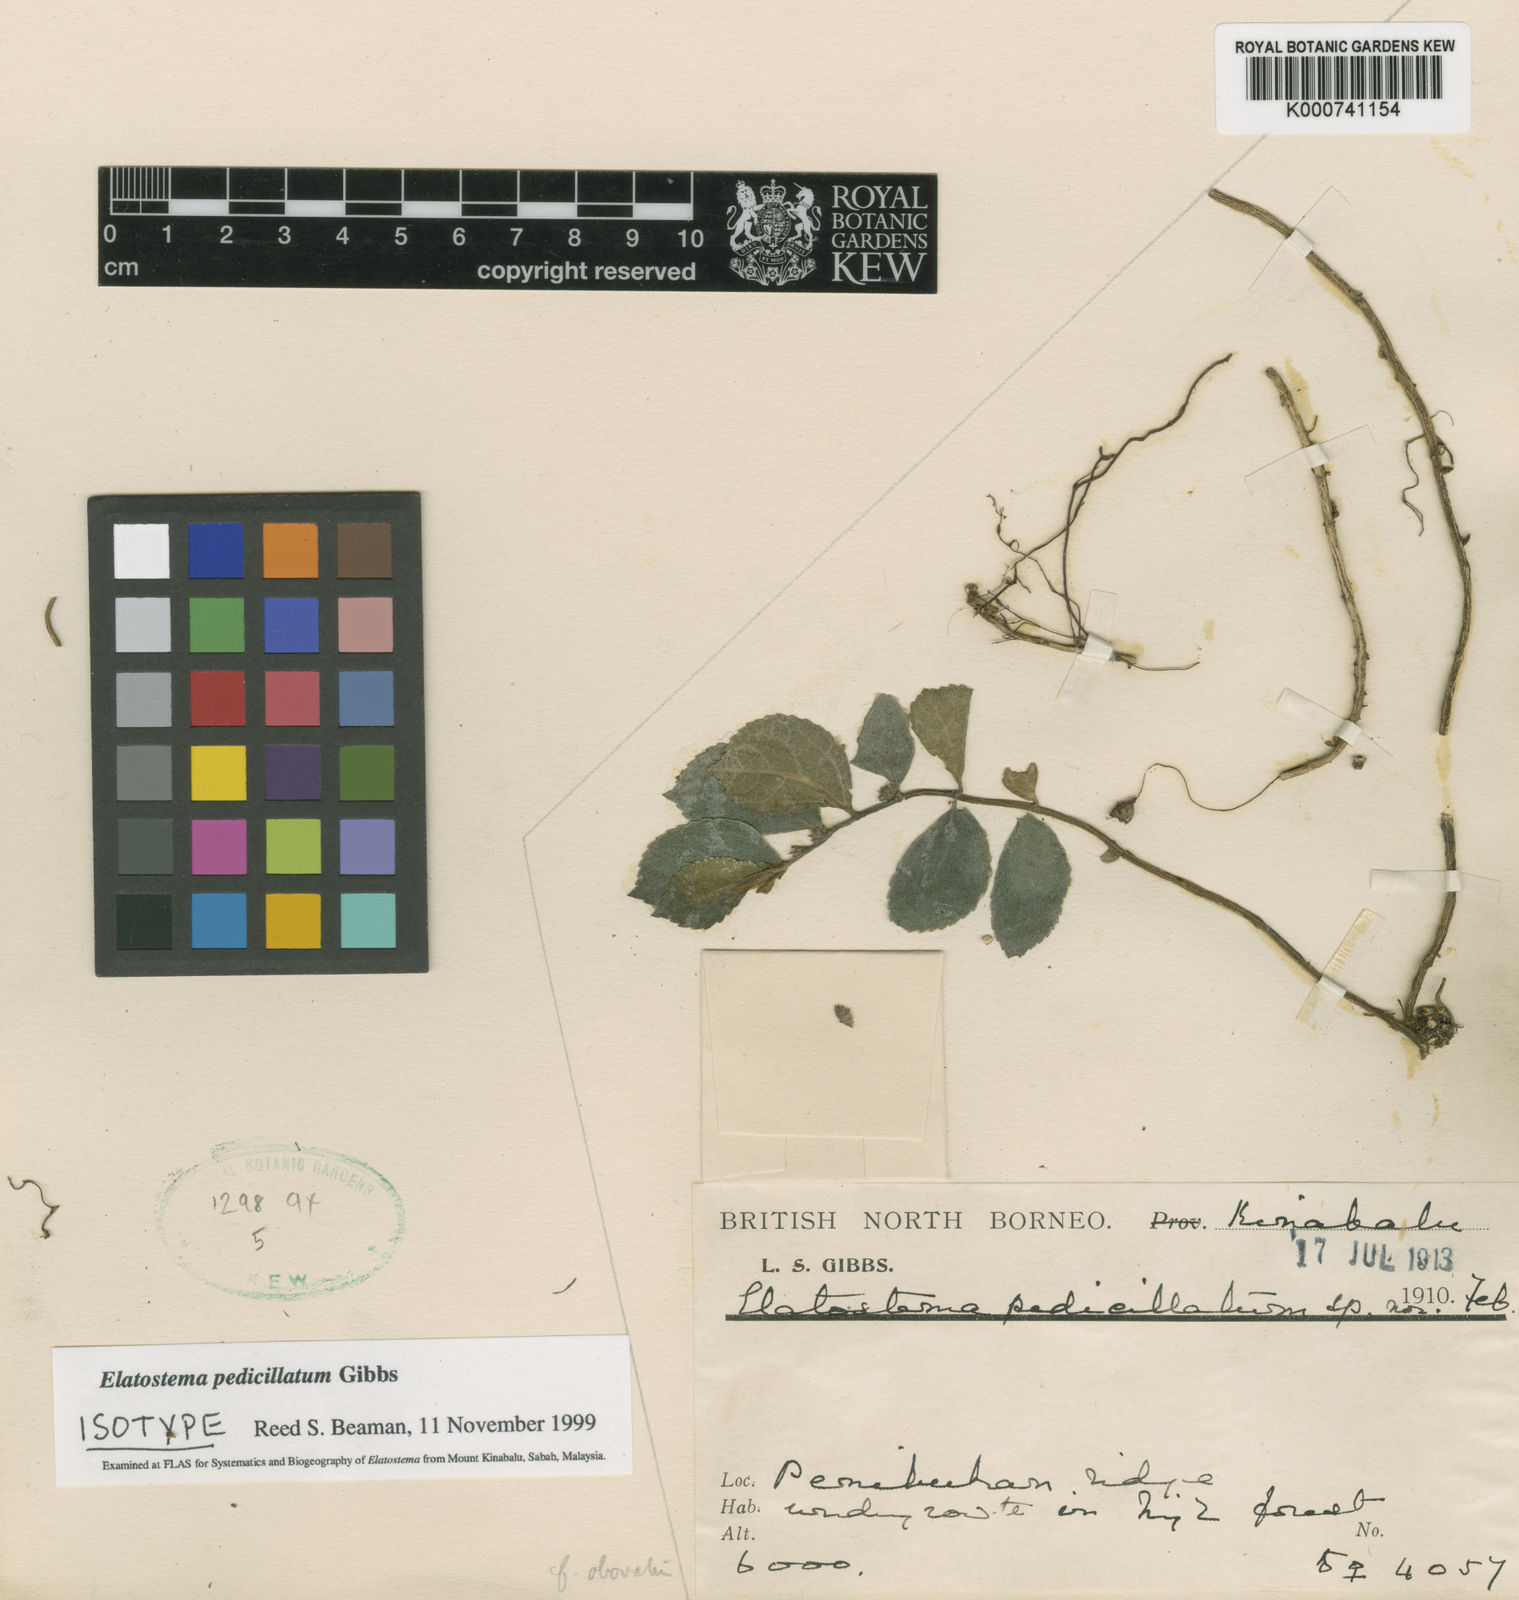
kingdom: Plantae
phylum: Tracheophyta
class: Magnoliopsida
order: Rosales
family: Urticaceae
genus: Elatostema
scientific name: Elatostema
